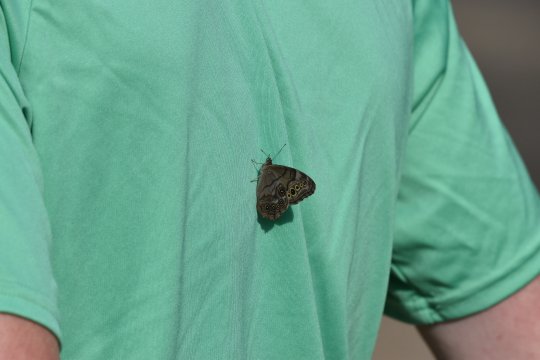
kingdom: Animalia
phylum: Arthropoda
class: Insecta
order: Lepidoptera
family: Nymphalidae
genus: Lethe
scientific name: Lethe anthedon
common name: Northern Pearly-Eye
